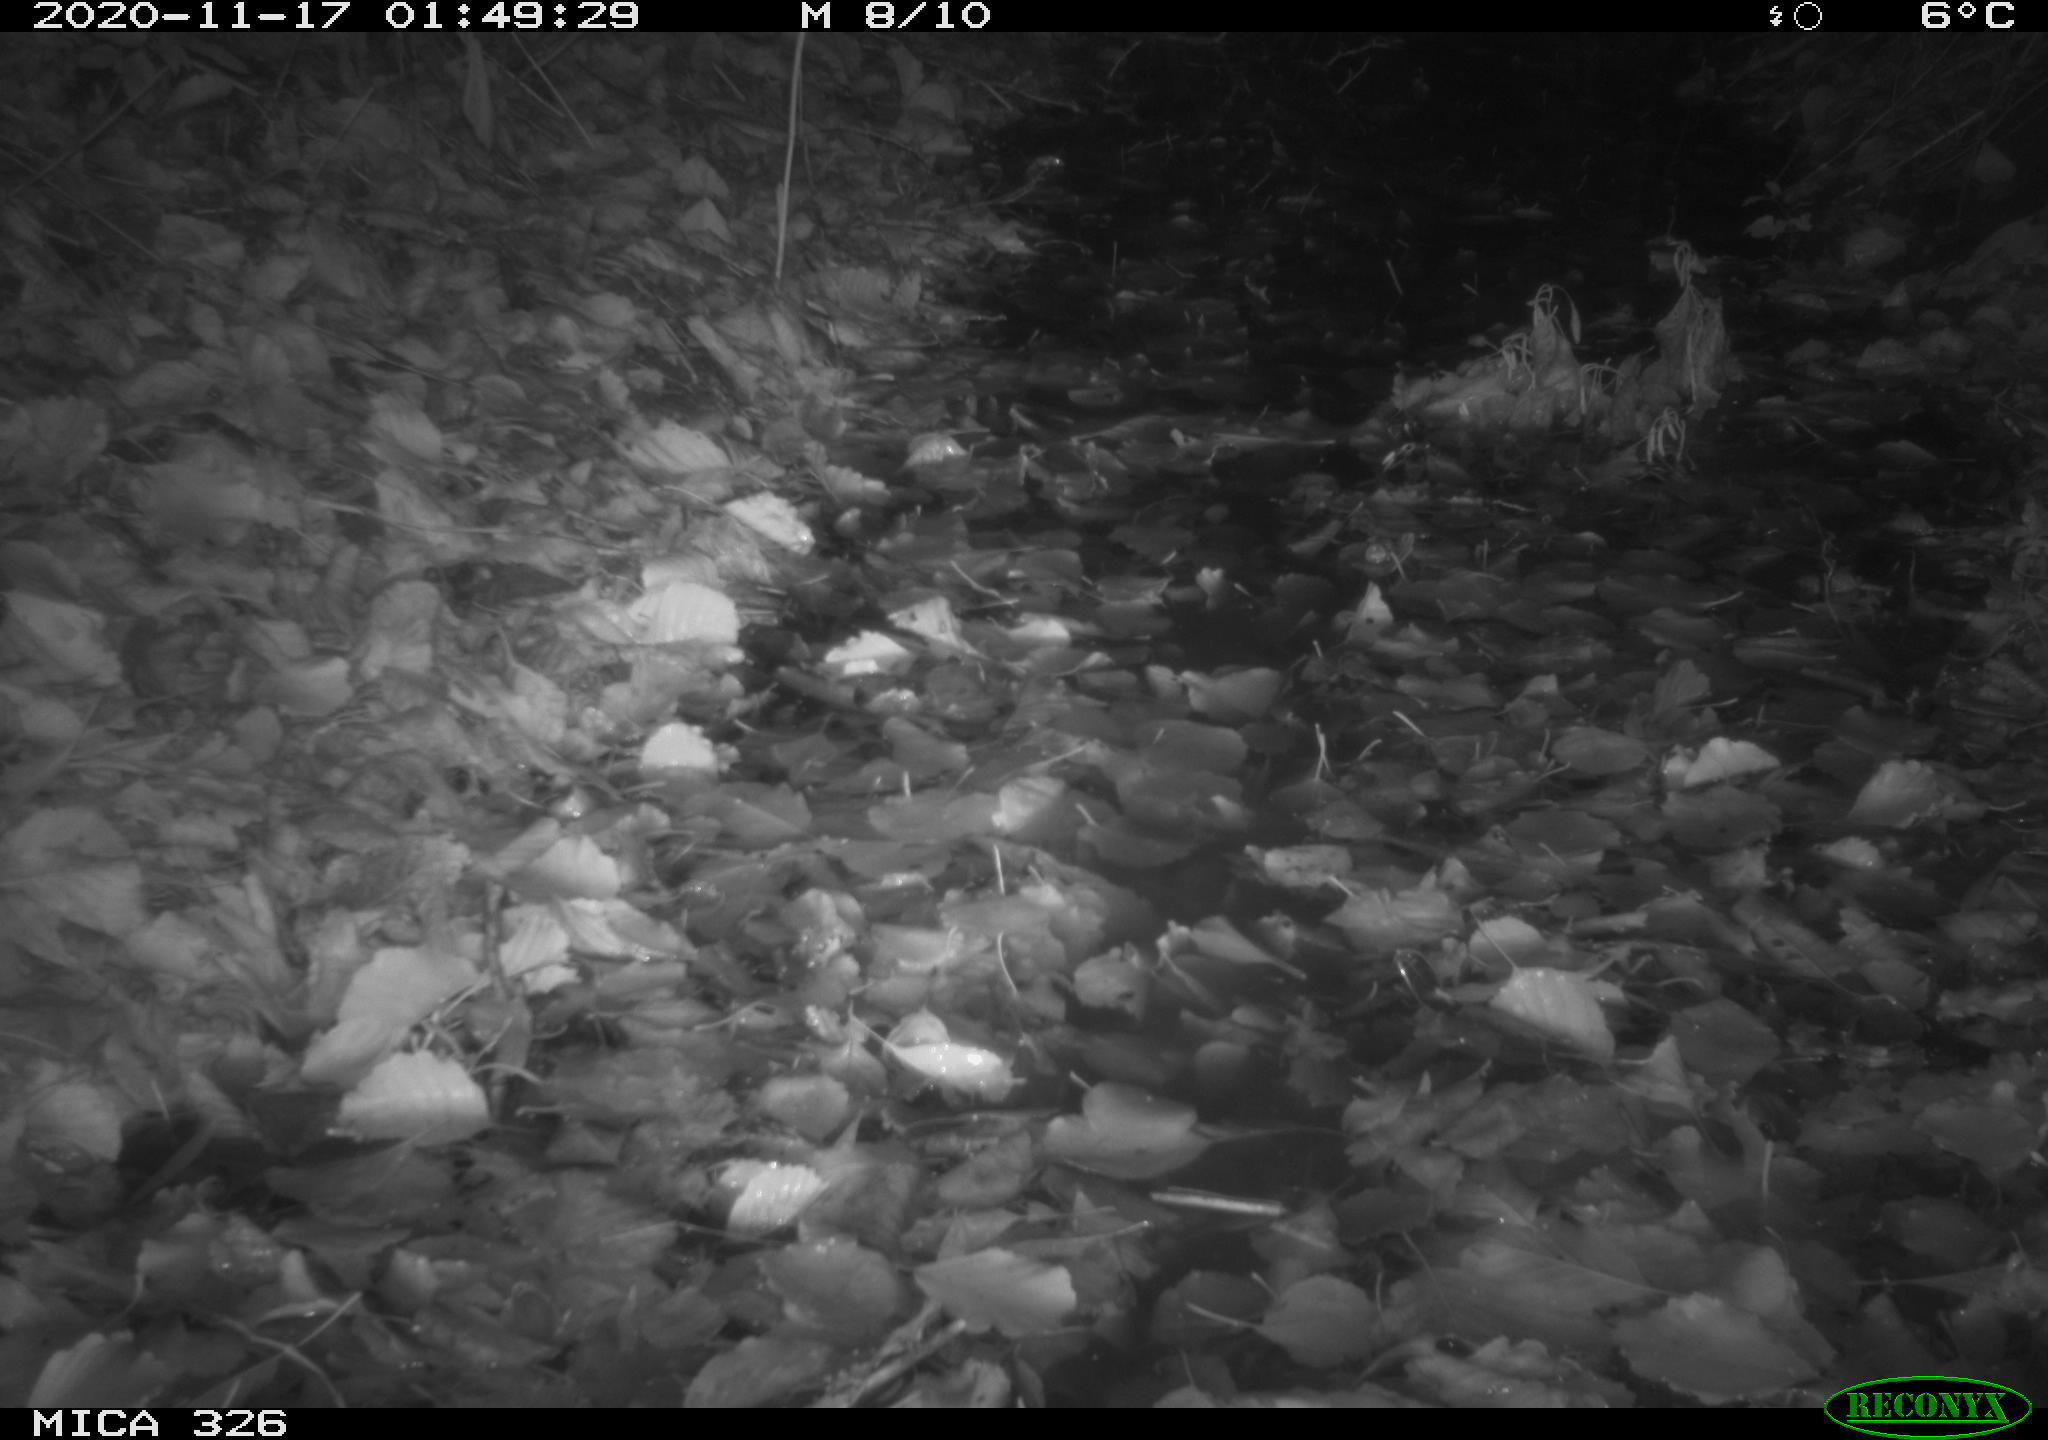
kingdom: Animalia
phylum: Chordata
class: Mammalia
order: Carnivora
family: Mustelidae
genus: Lutra
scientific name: Lutra lutra
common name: European otter
